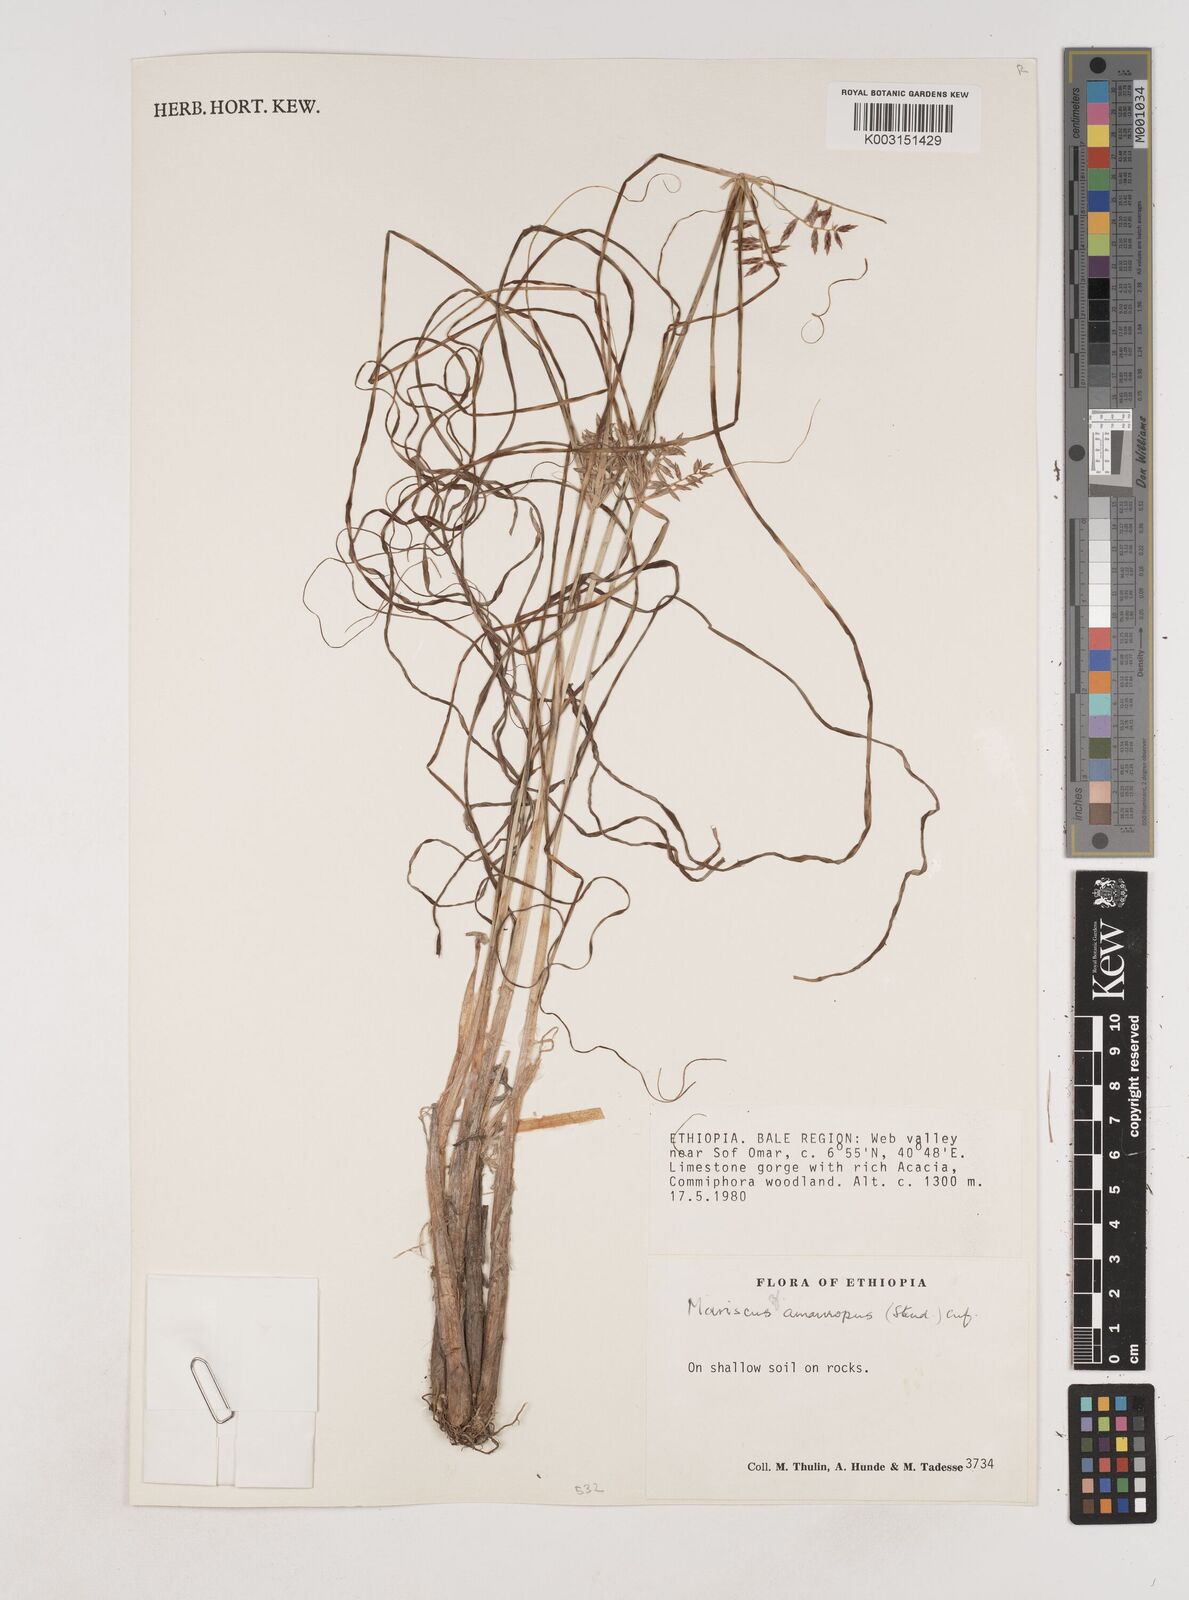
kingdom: Plantae
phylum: Tracheophyta
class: Liliopsida
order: Poales
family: Cyperaceae
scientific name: Cyperaceae
